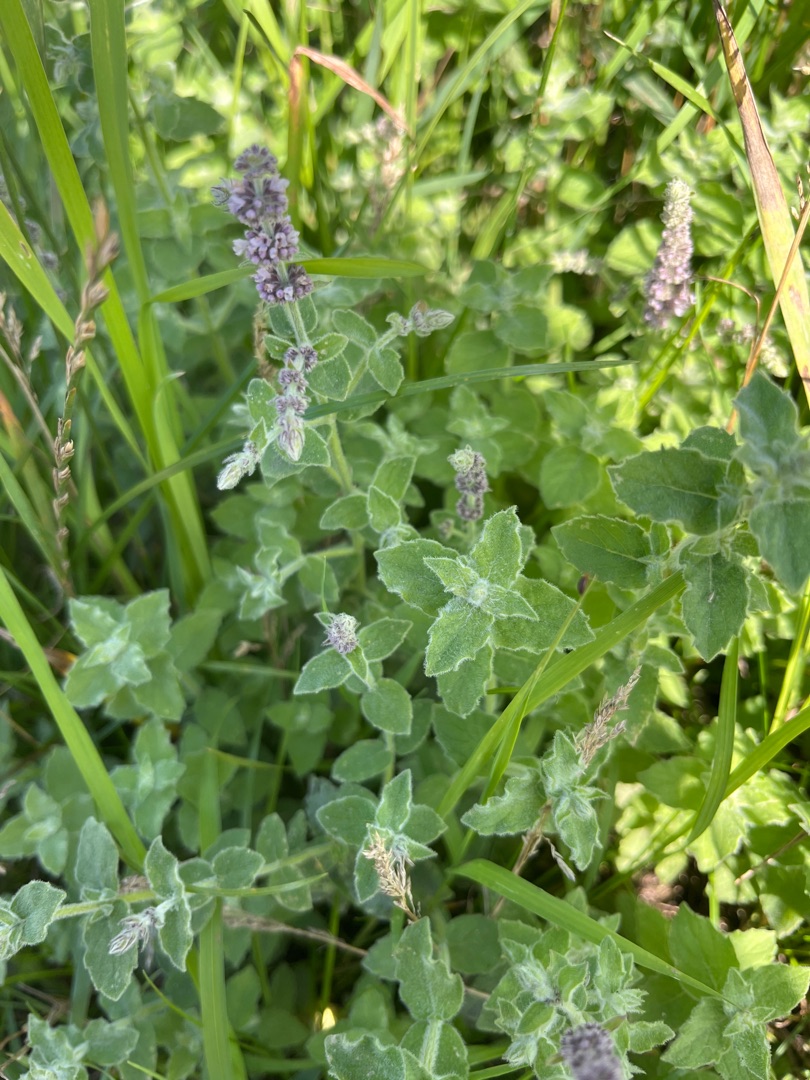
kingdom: Plantae
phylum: Tracheophyta
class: Magnoliopsida
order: Lamiales
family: Lamiaceae
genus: Mentha
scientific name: Mentha rotundifolia
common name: Grå mynte × rundbladet mynte
